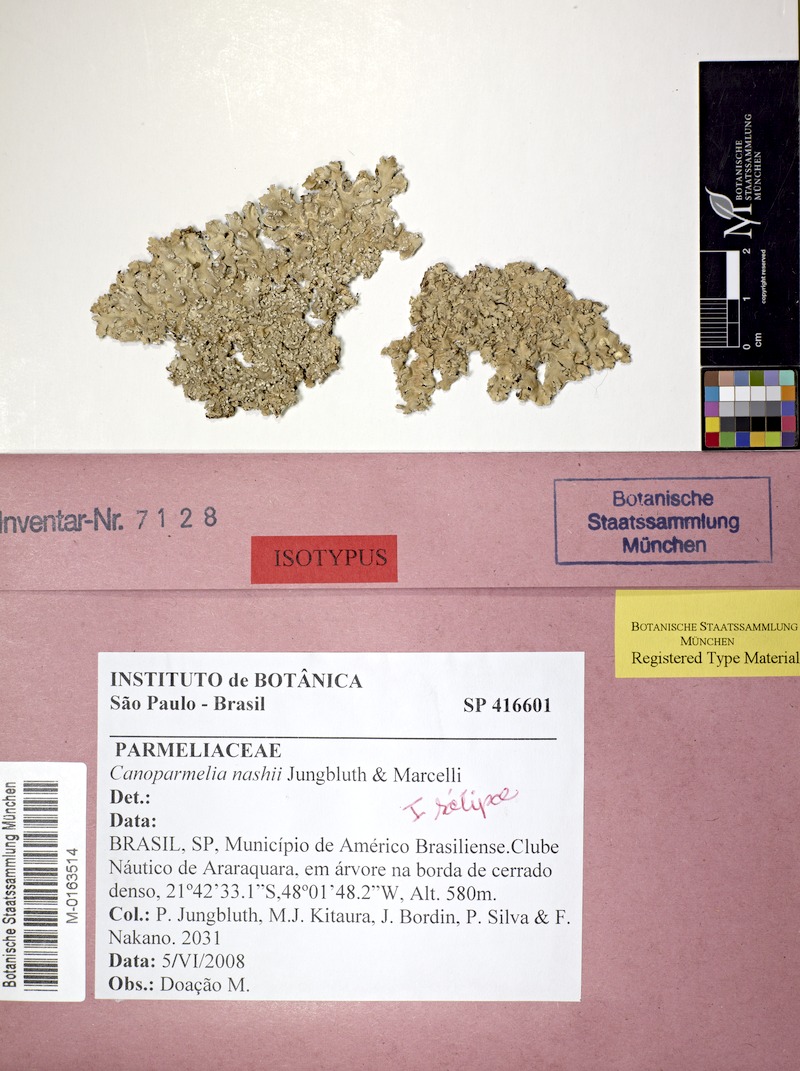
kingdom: Fungi
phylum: Ascomycota
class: Lecanoromycetes
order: Lecanorales
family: Parmeliaceae
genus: Canoparmelia
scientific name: Canoparmelia nashii
